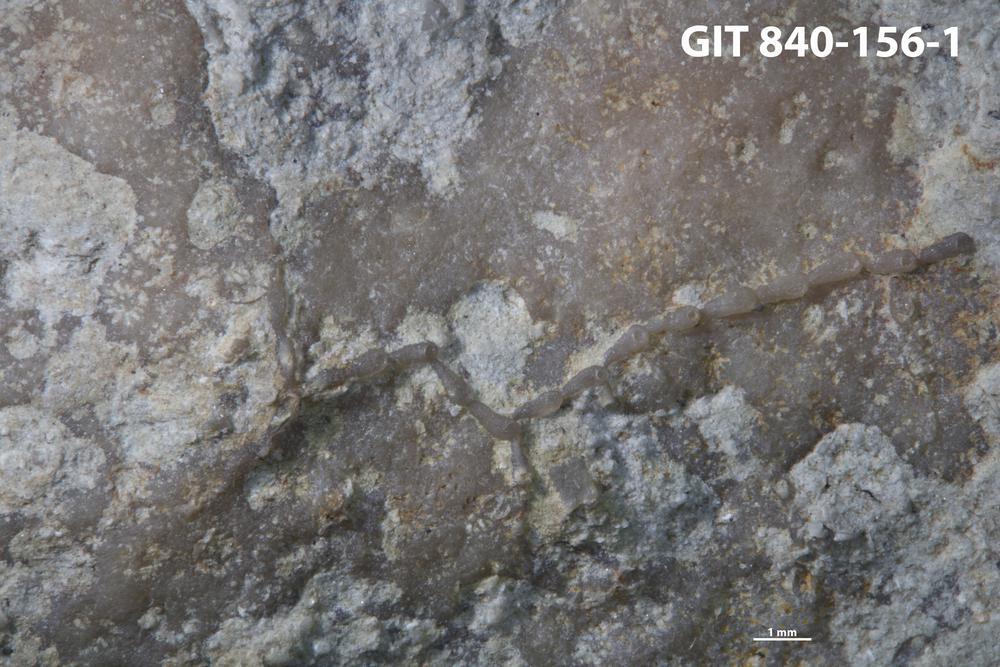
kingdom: Animalia
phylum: Bryozoa
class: Stenolaemata
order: Cyclostomatida
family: Corynotrypidae
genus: Corynotrypa
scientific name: Corynotrypa
